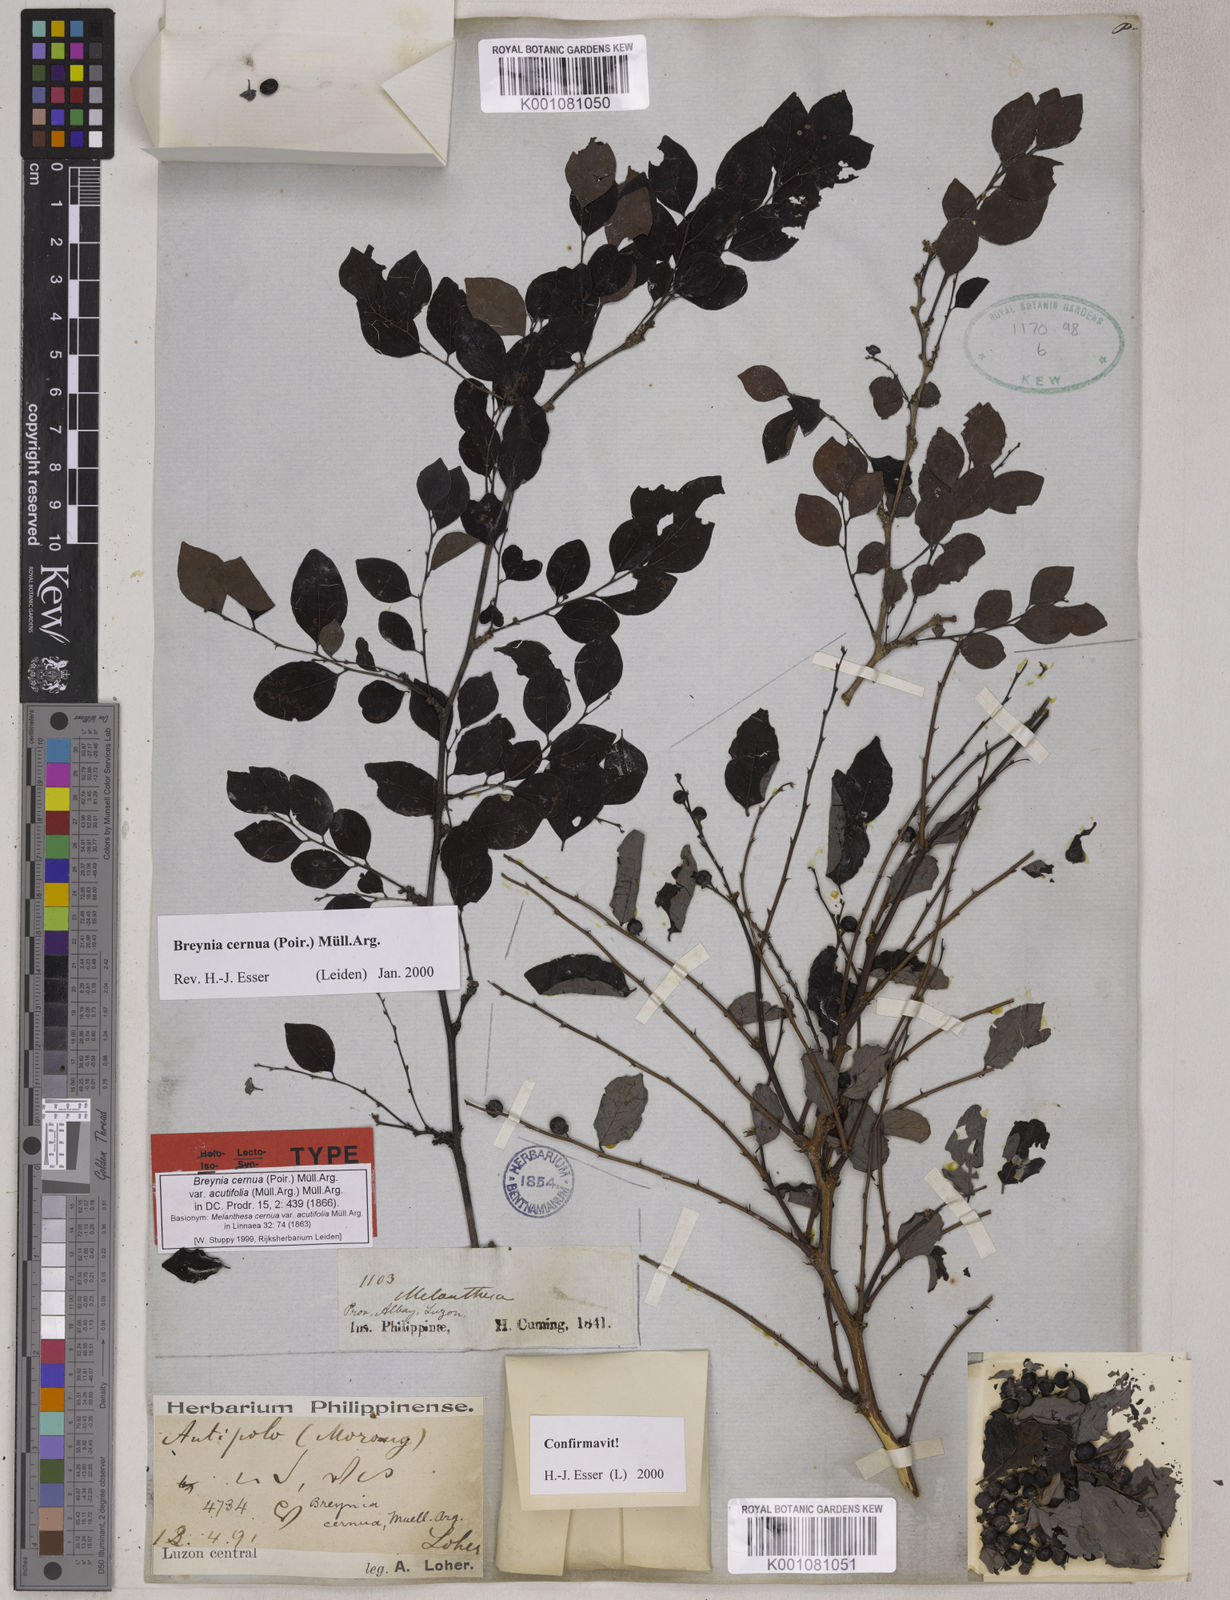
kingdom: Plantae
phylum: Tracheophyta
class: Magnoliopsida
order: Malpighiales
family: Phyllanthaceae
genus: Breynia
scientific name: Breynia
